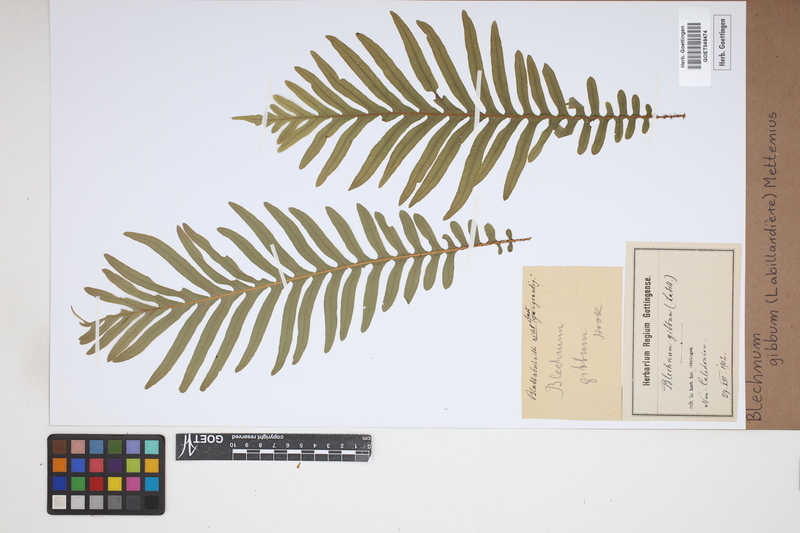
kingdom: Plantae
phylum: Tracheophyta
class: Polypodiopsida
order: Polypodiales
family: Blechnaceae
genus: Oceaniopteris
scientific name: Oceaniopteris gibba
